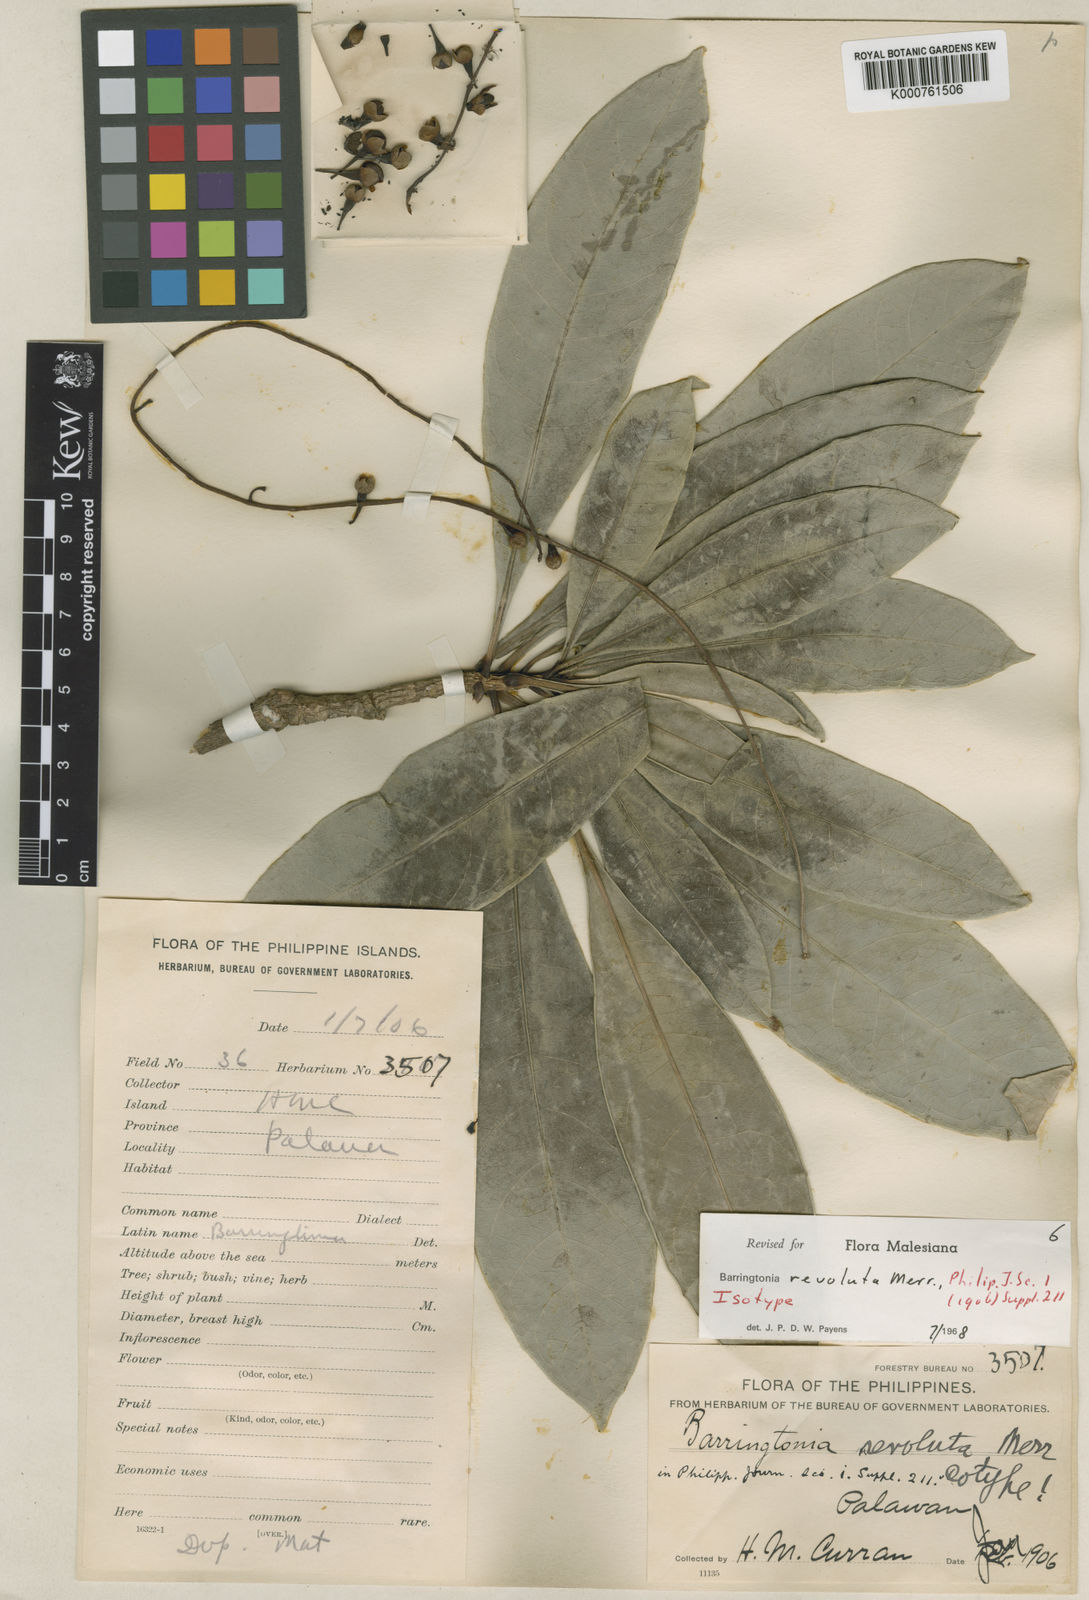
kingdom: Plantae
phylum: Tracheophyta
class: Magnoliopsida
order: Ericales
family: Lecythidaceae
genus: Barringtonia
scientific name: Barringtonia revoluta
